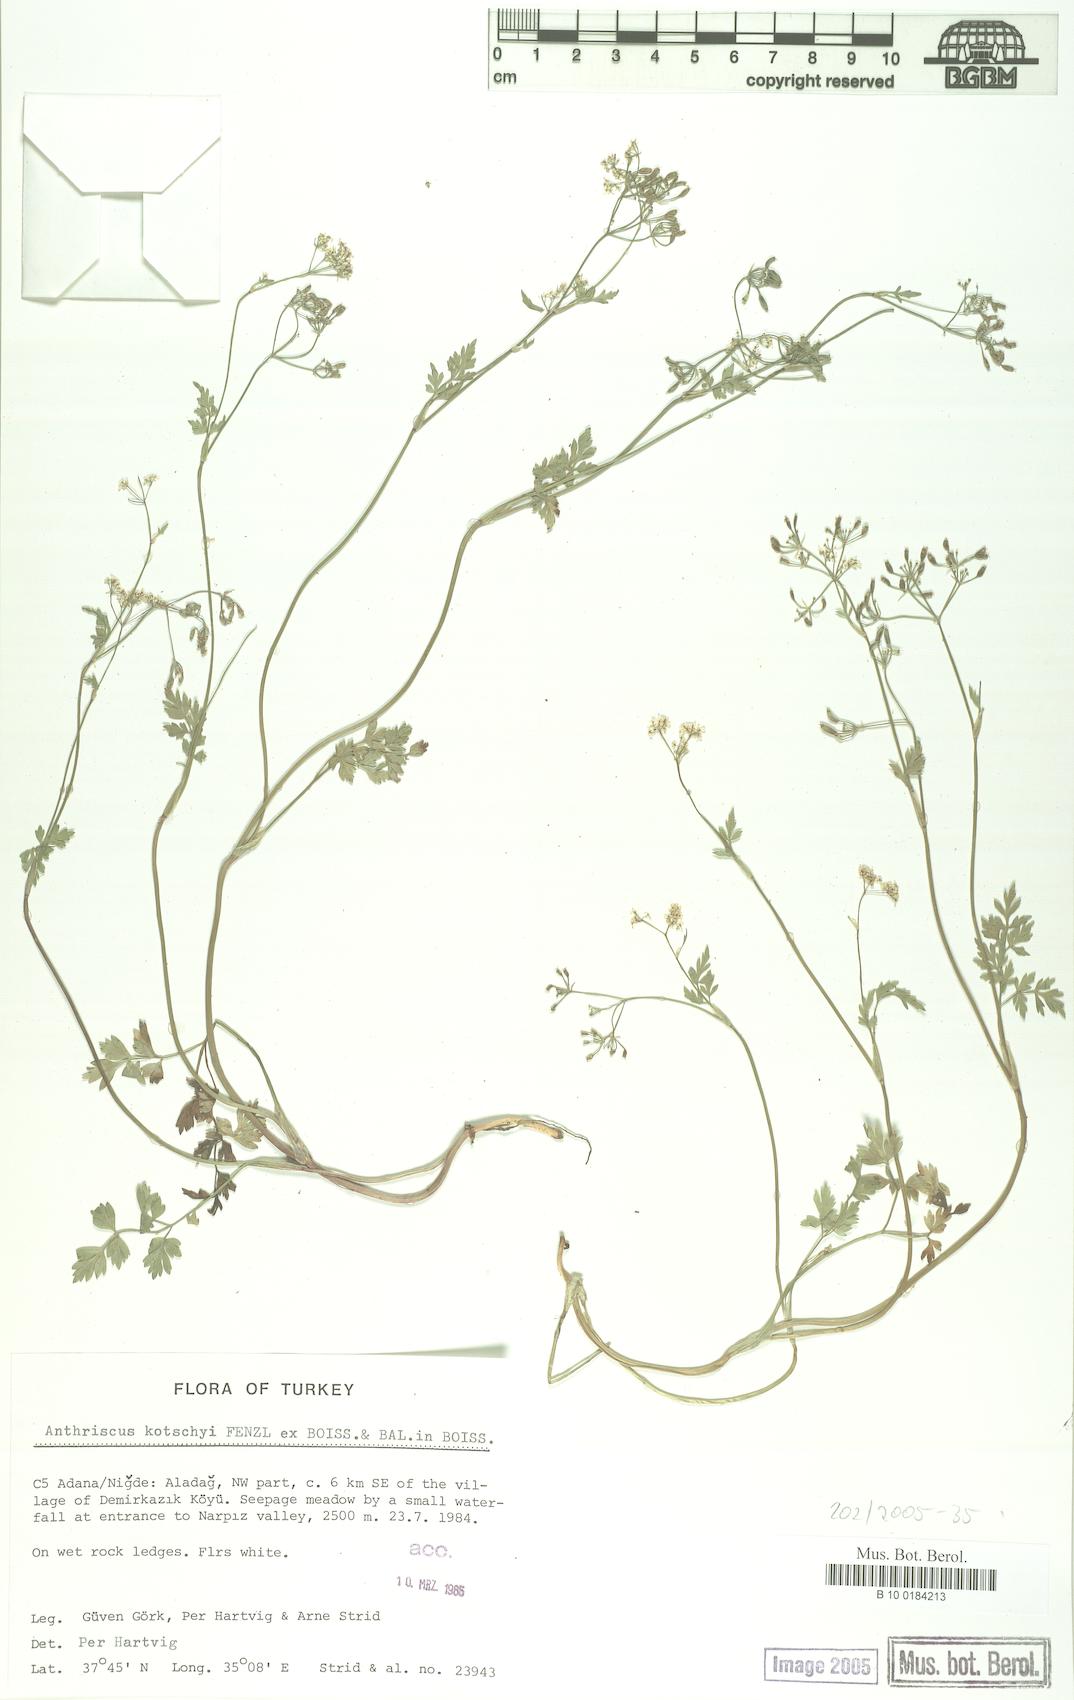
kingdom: Plantae
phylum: Tracheophyta
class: Magnoliopsida
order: Apiales
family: Apiaceae
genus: Anthriscus
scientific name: Anthriscus kotschyi
